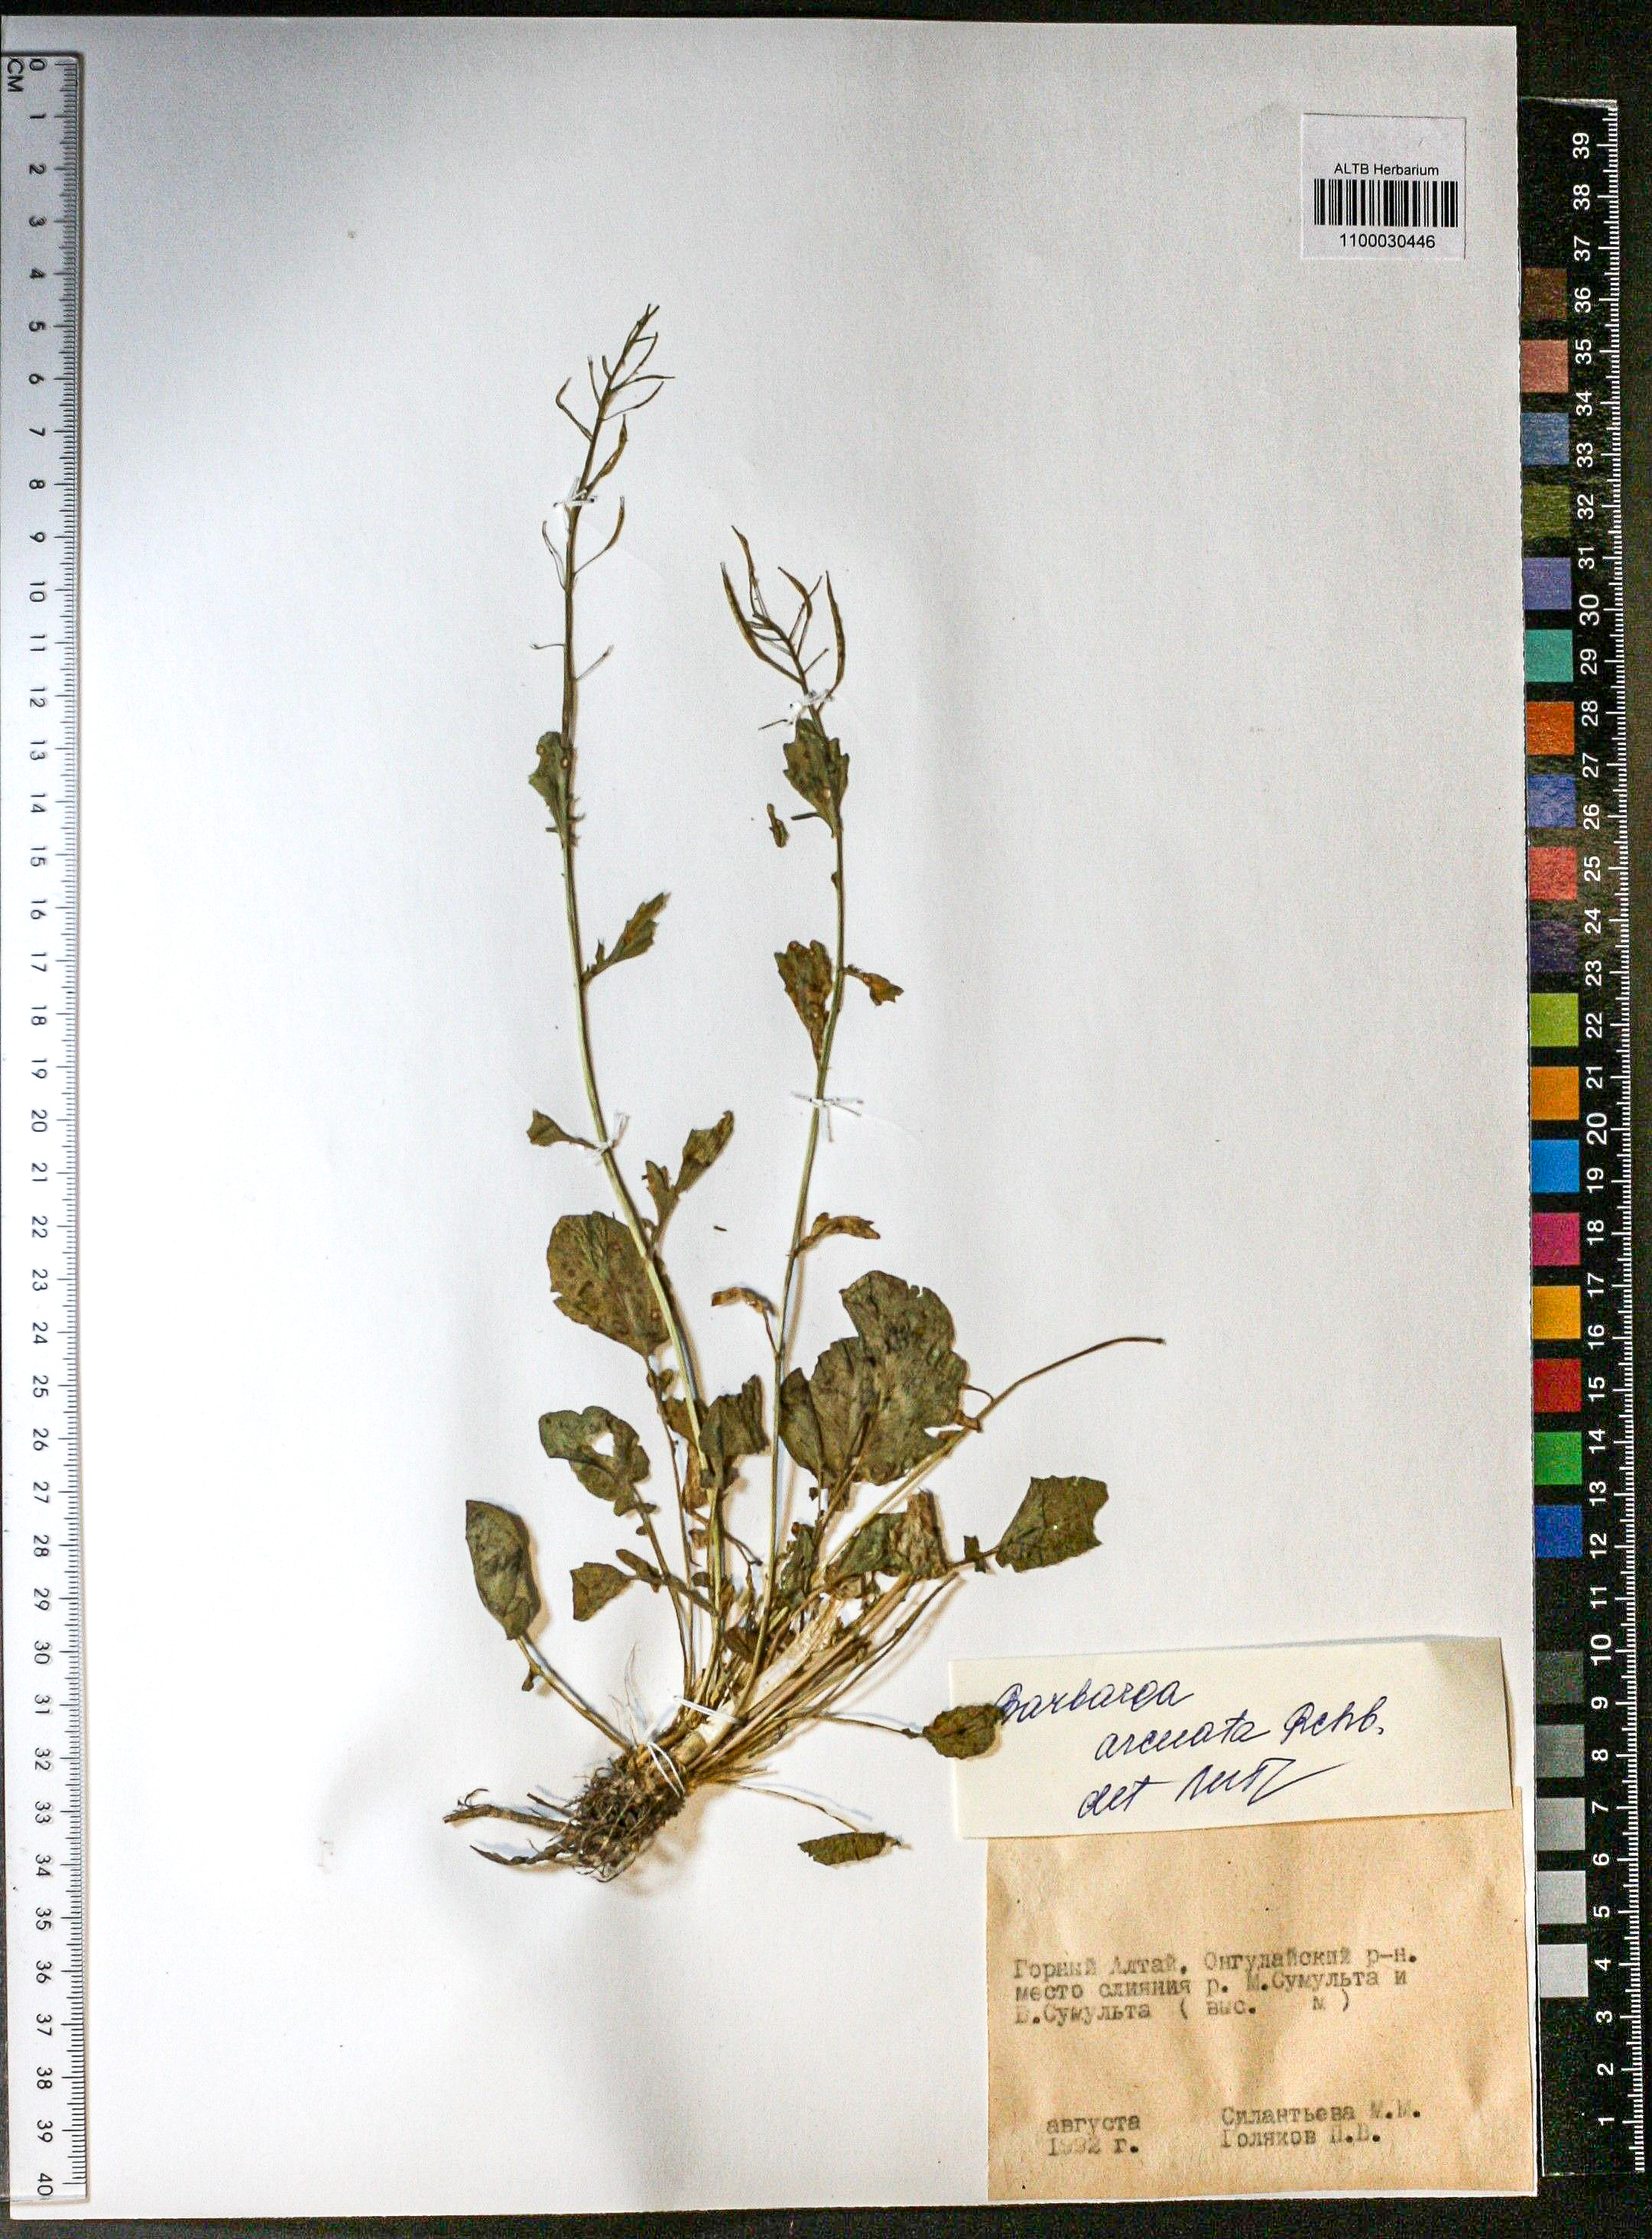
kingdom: Plantae
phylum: Tracheophyta
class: Magnoliopsida
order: Brassicales
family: Brassicaceae
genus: Barbarea
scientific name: Barbarea vulgaris
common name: Cressy-greens
